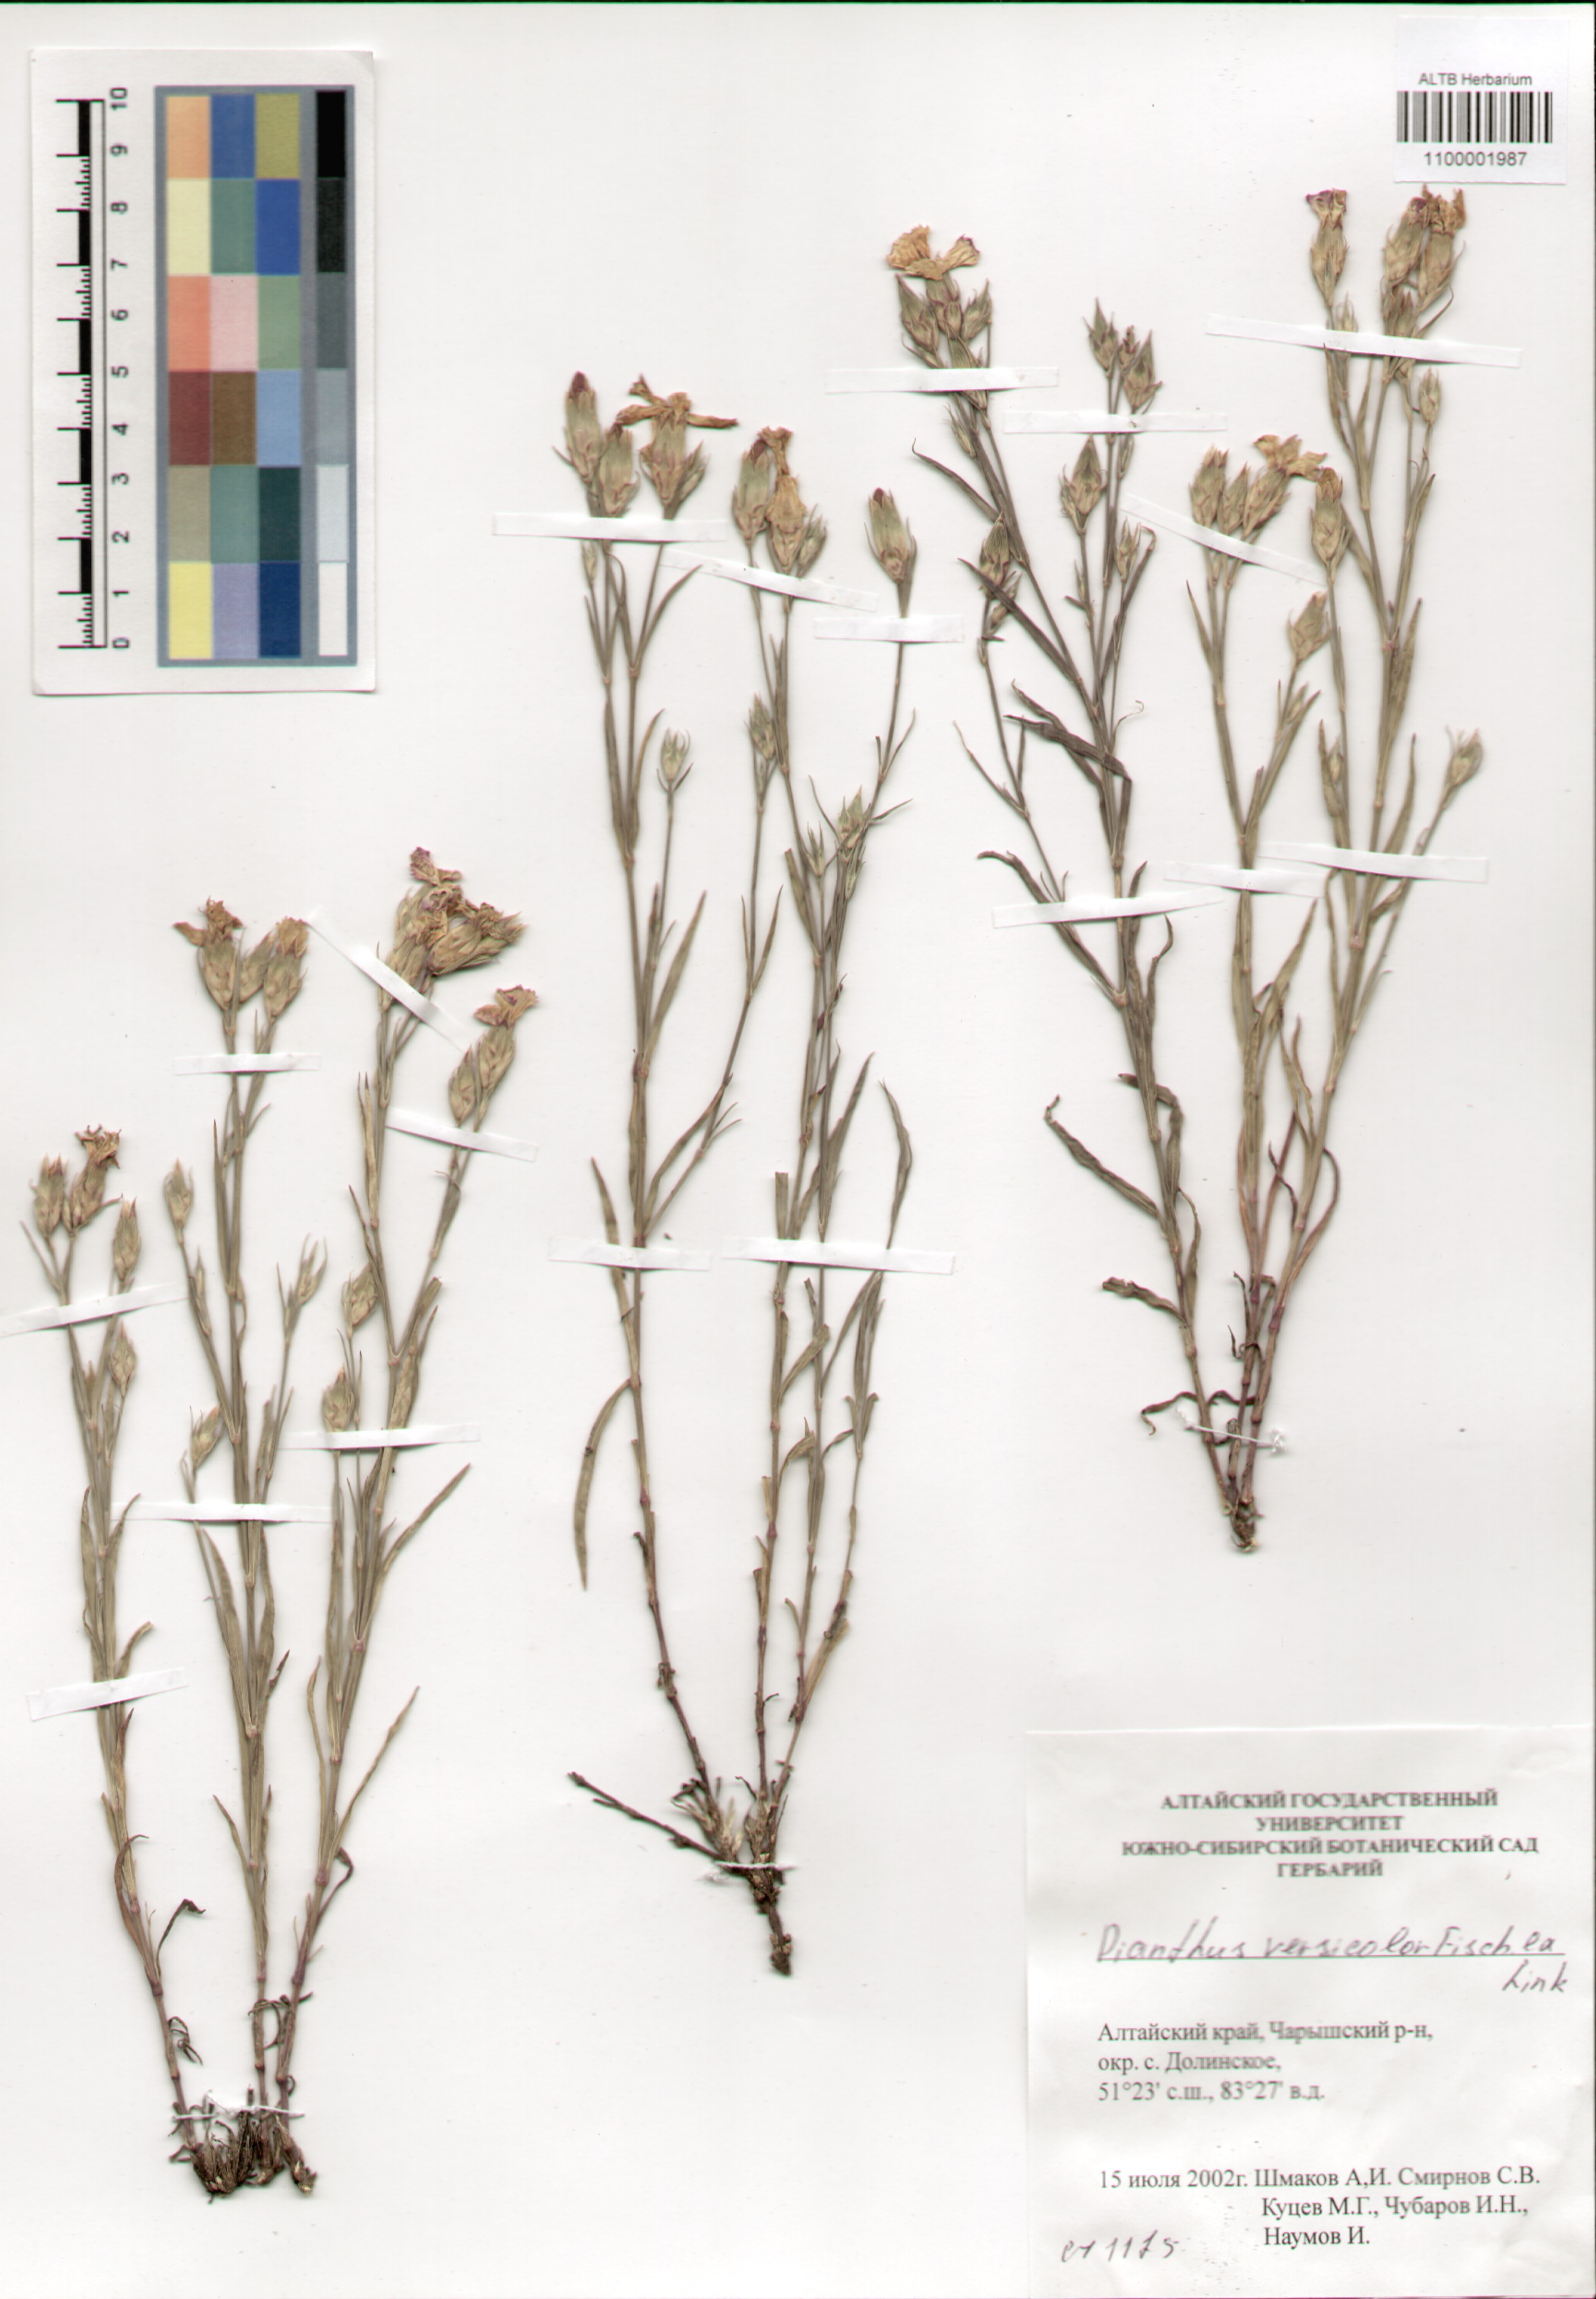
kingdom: Plantae
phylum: Tracheophyta
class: Magnoliopsida
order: Caryophyllales
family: Caryophyllaceae
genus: Dianthus
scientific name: Dianthus chinensis
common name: Rainbow pink
